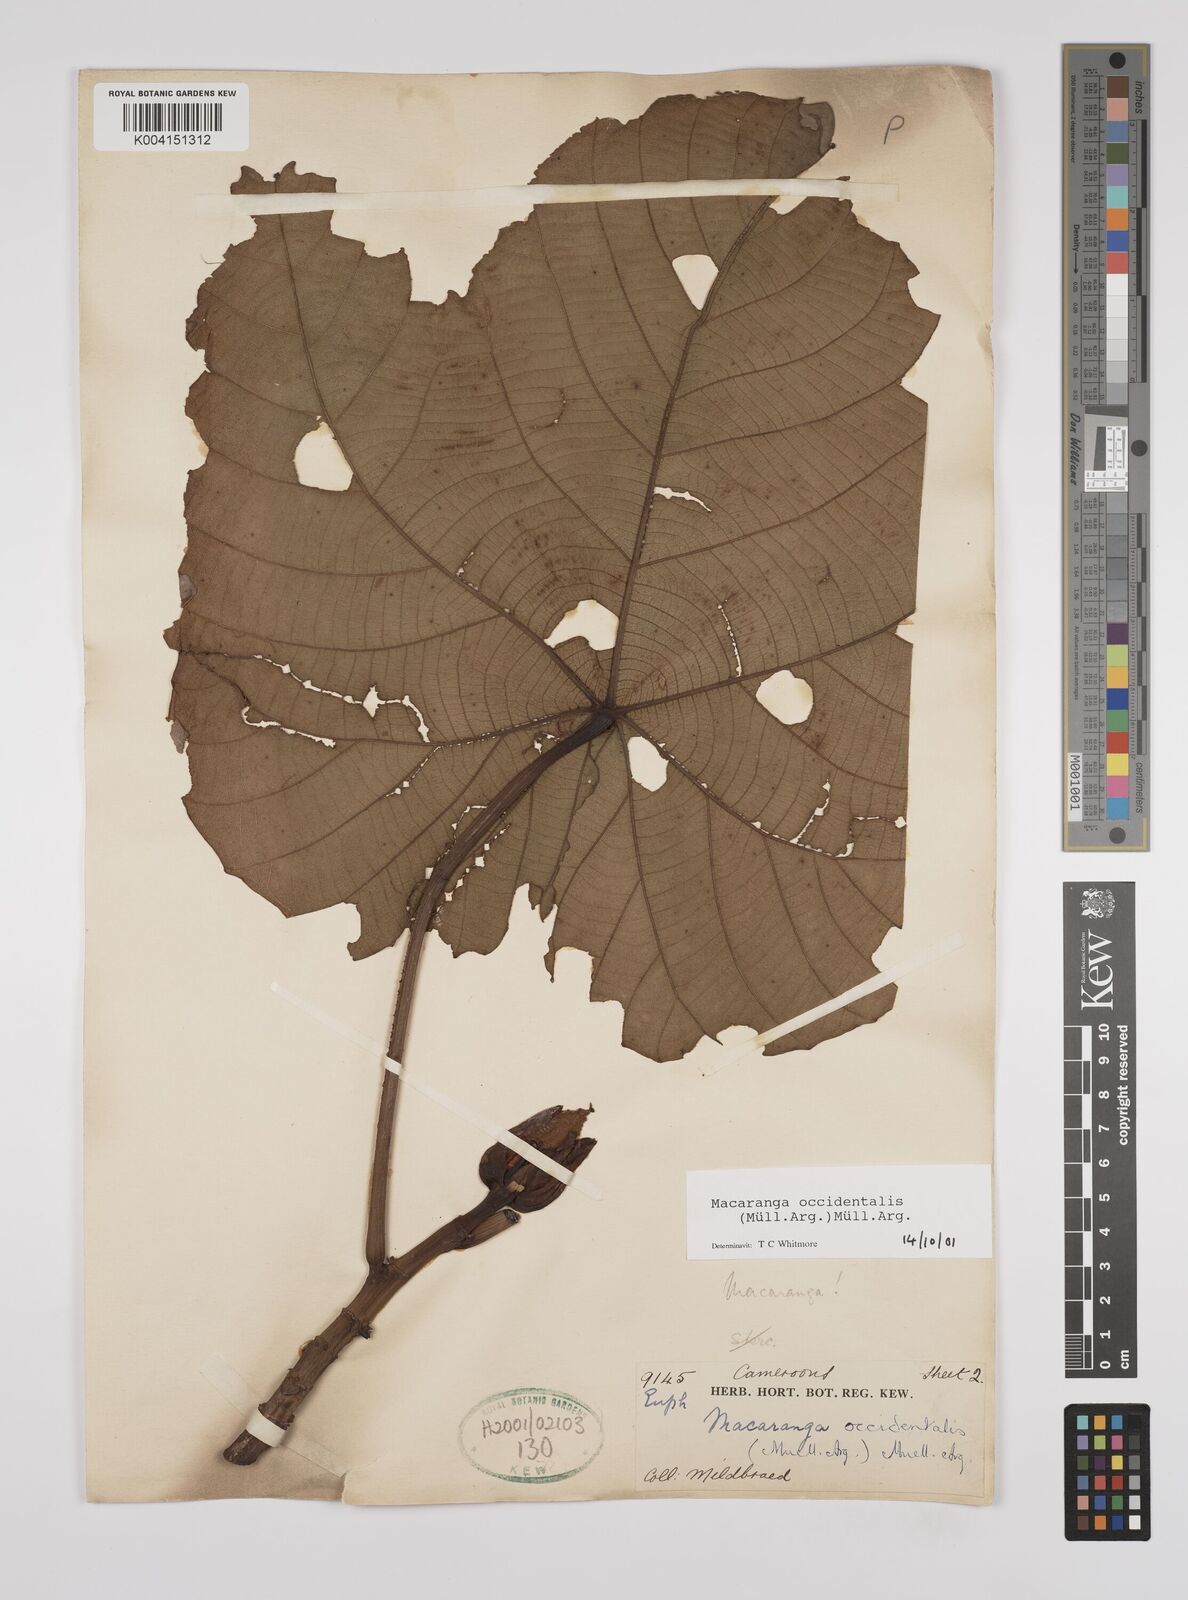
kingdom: Plantae
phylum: Tracheophyta
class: Magnoliopsida
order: Malpighiales
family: Euphorbiaceae
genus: Macaranga
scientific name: Macaranga occidentalis
